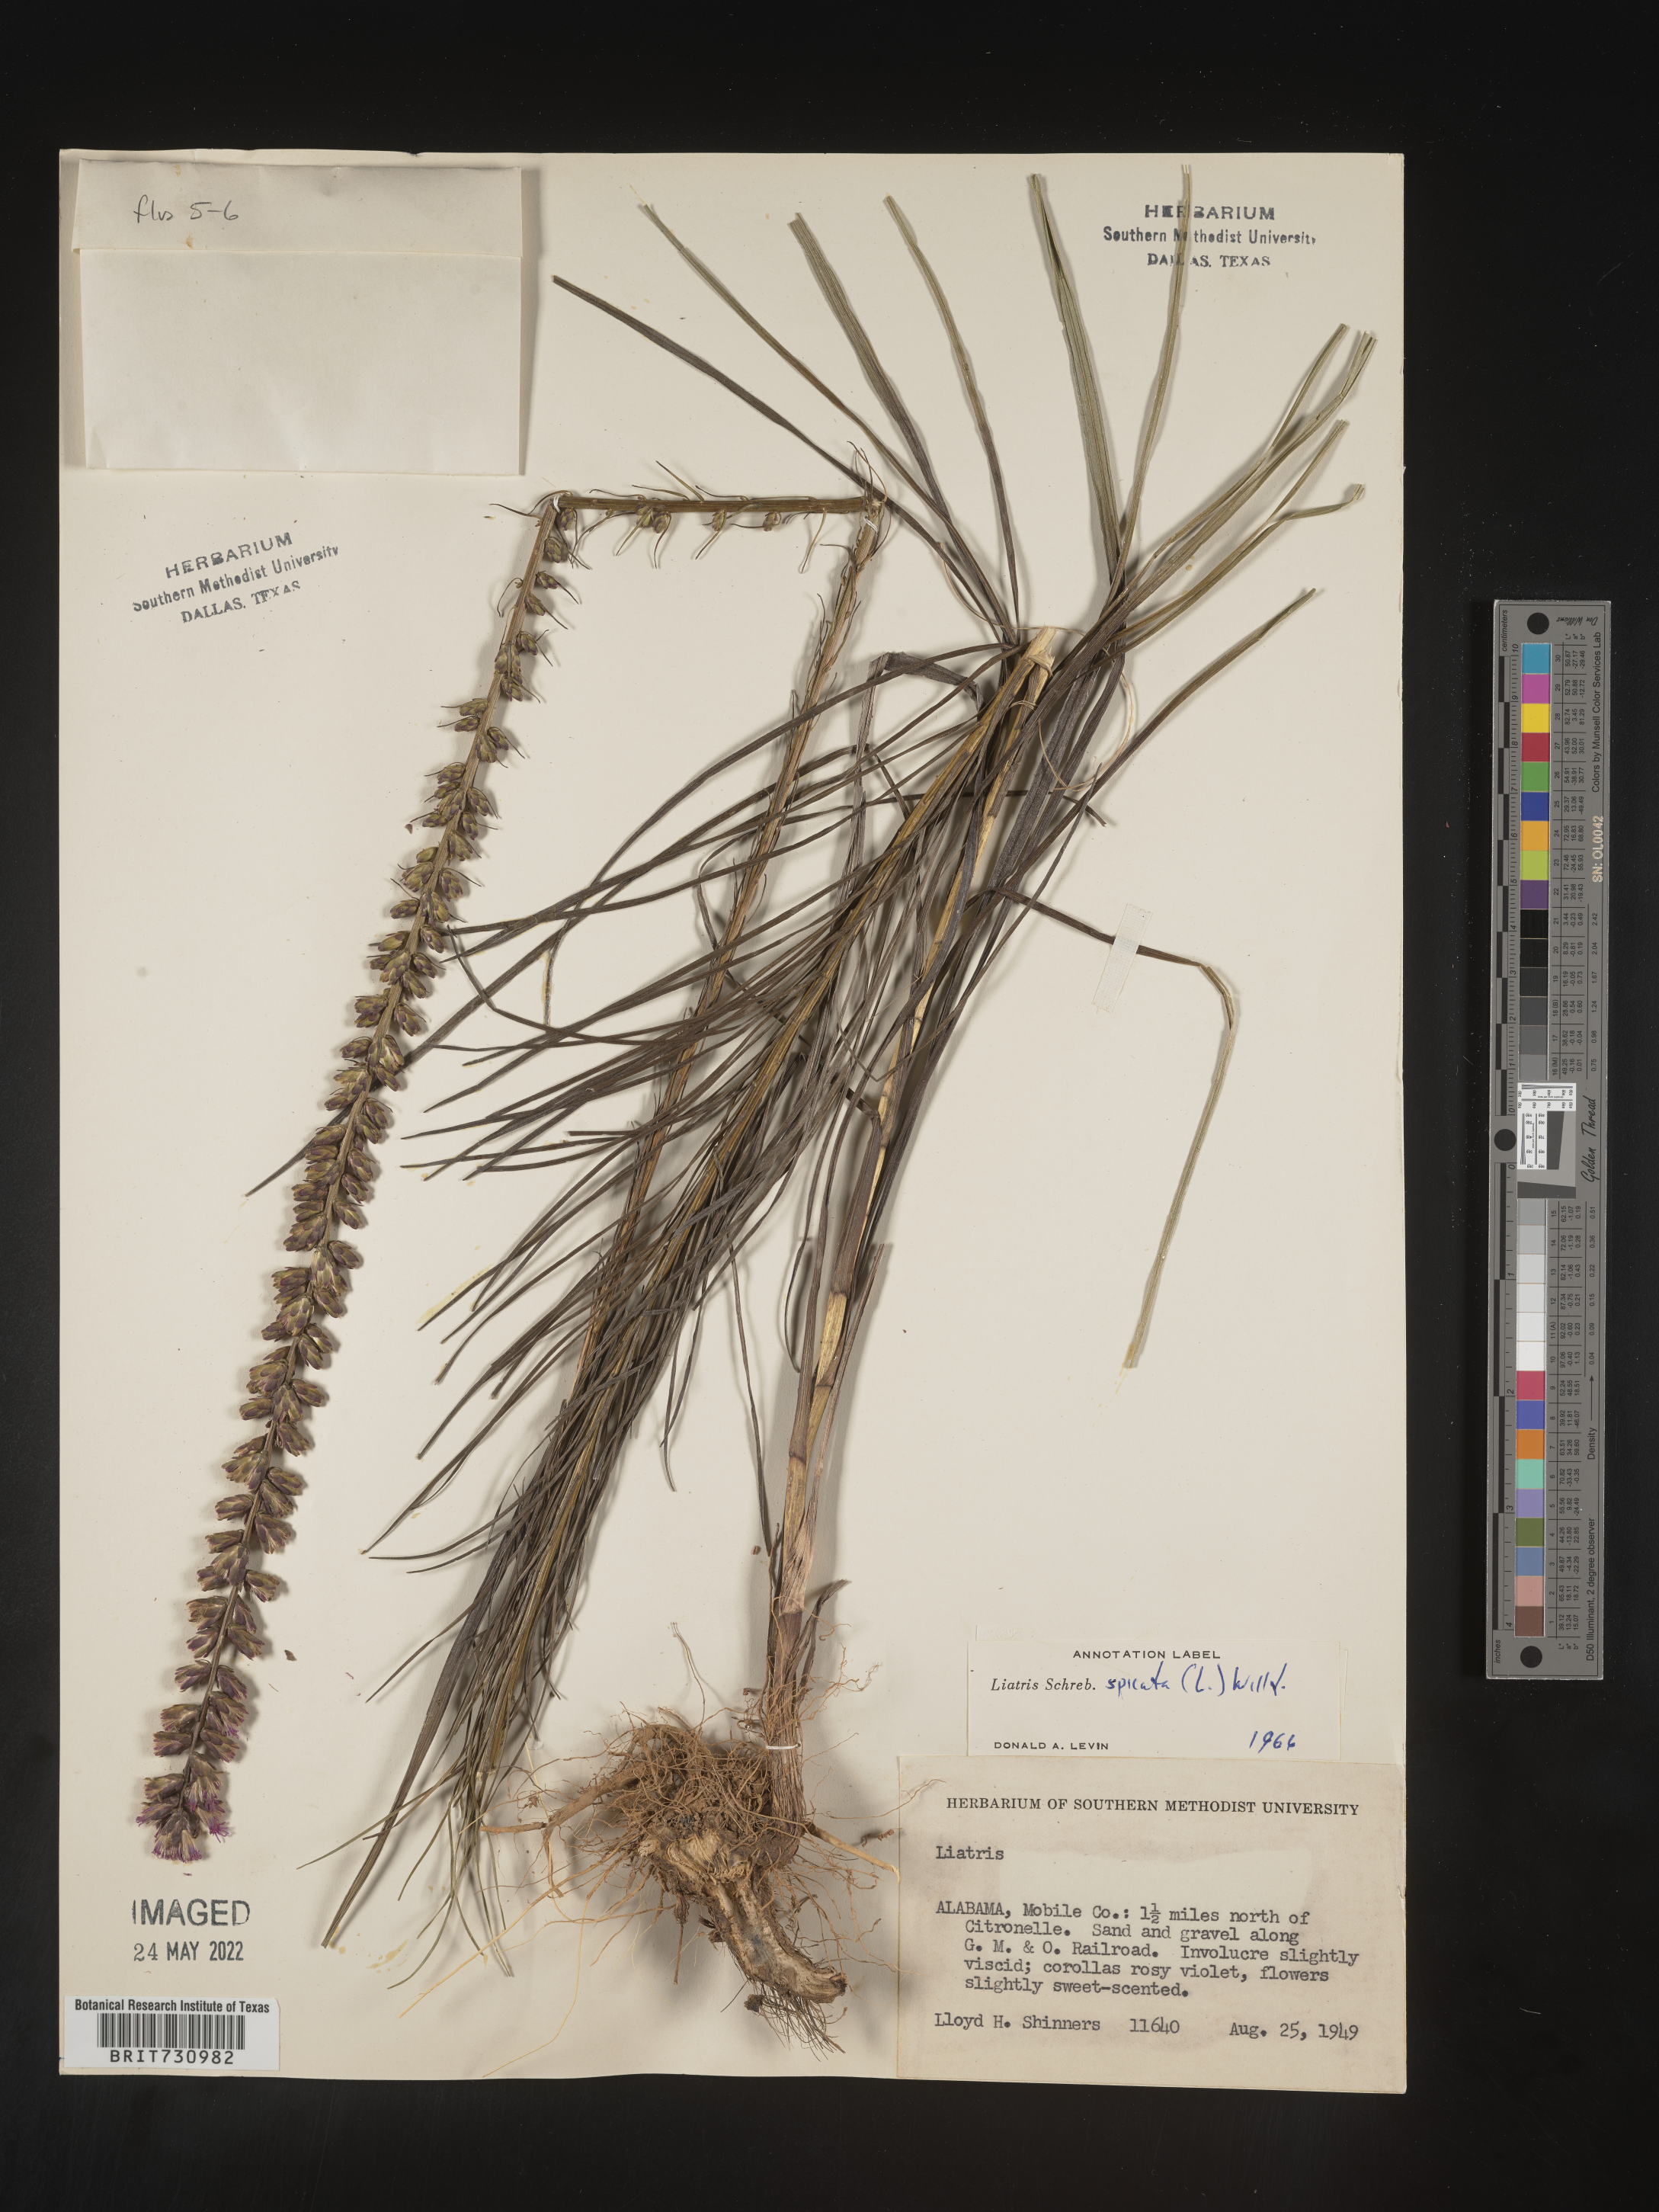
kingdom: Plantae
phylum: Tracheophyta
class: Magnoliopsida
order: Asterales
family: Asteraceae
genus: Liatris
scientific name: Liatris spicata
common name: Florist gayfeather
